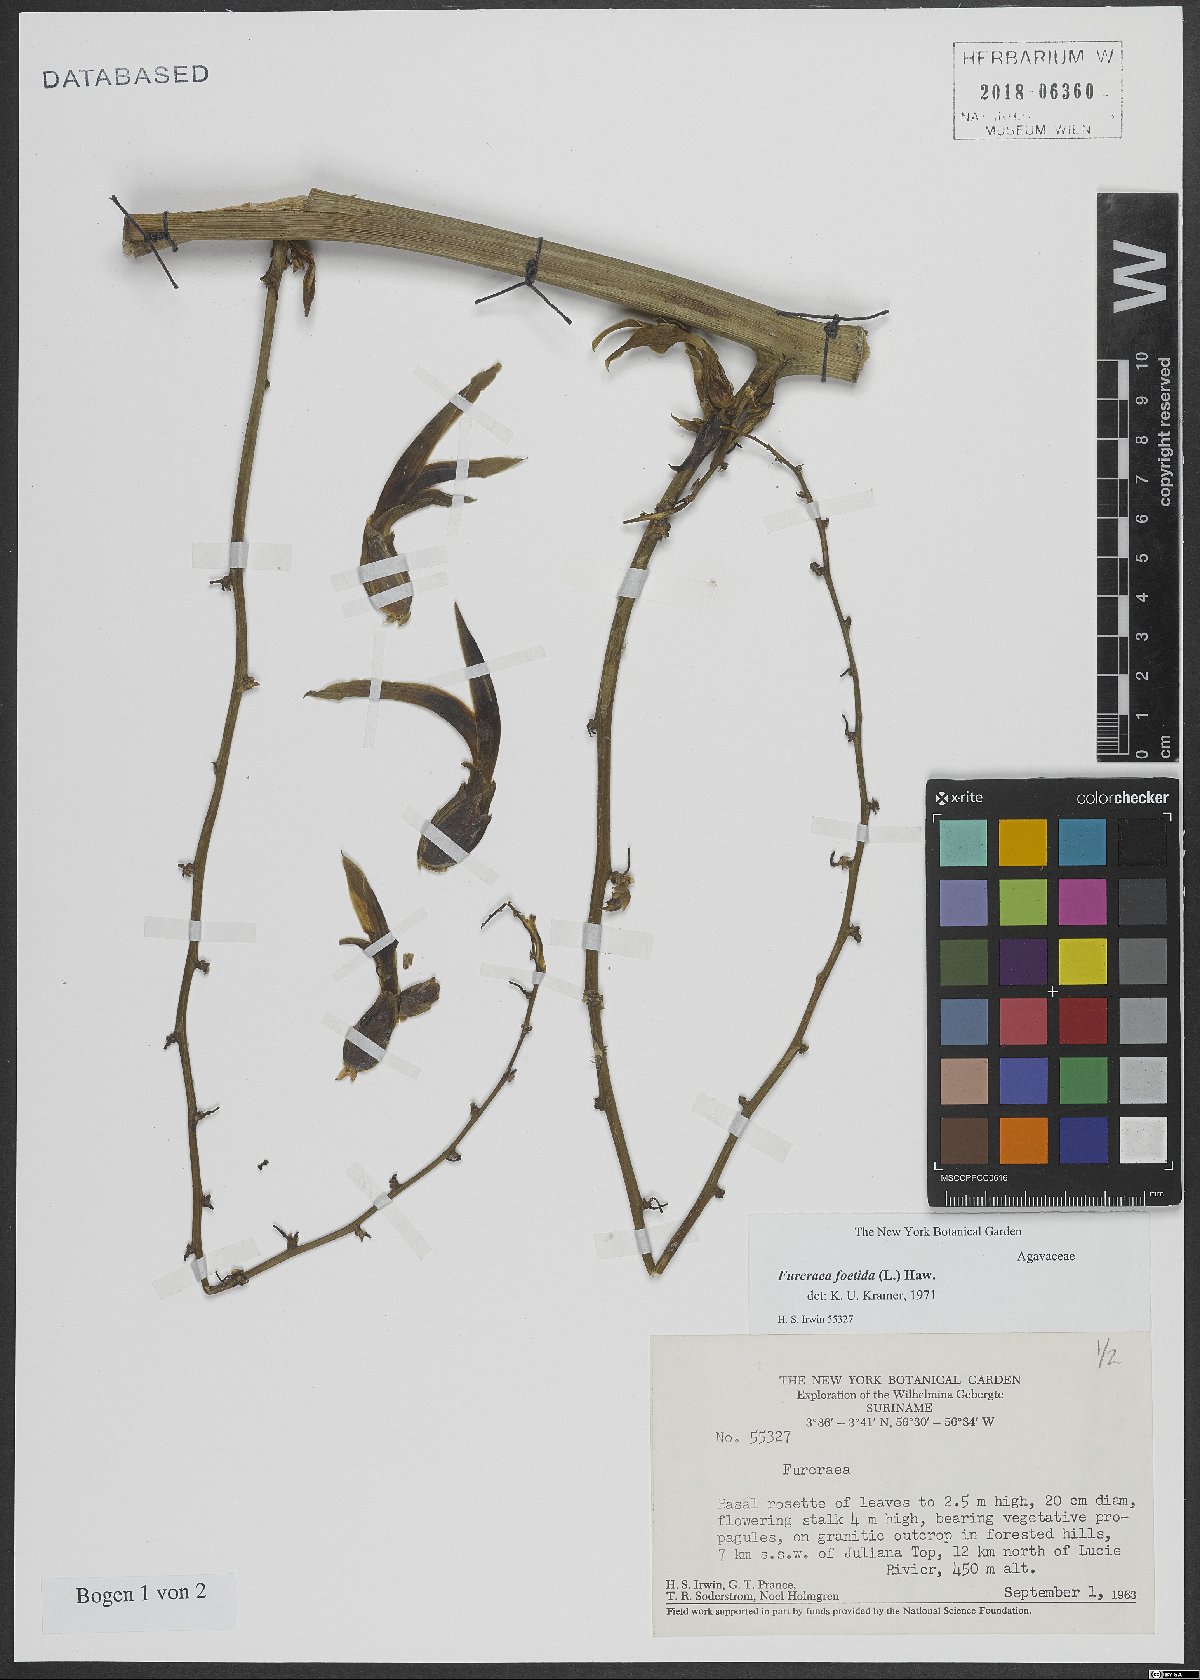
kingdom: Plantae
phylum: Tracheophyta
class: Liliopsida
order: Asparagales
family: Asparagaceae
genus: Furcraea
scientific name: Furcraea foetida
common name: Mauritius hemp
